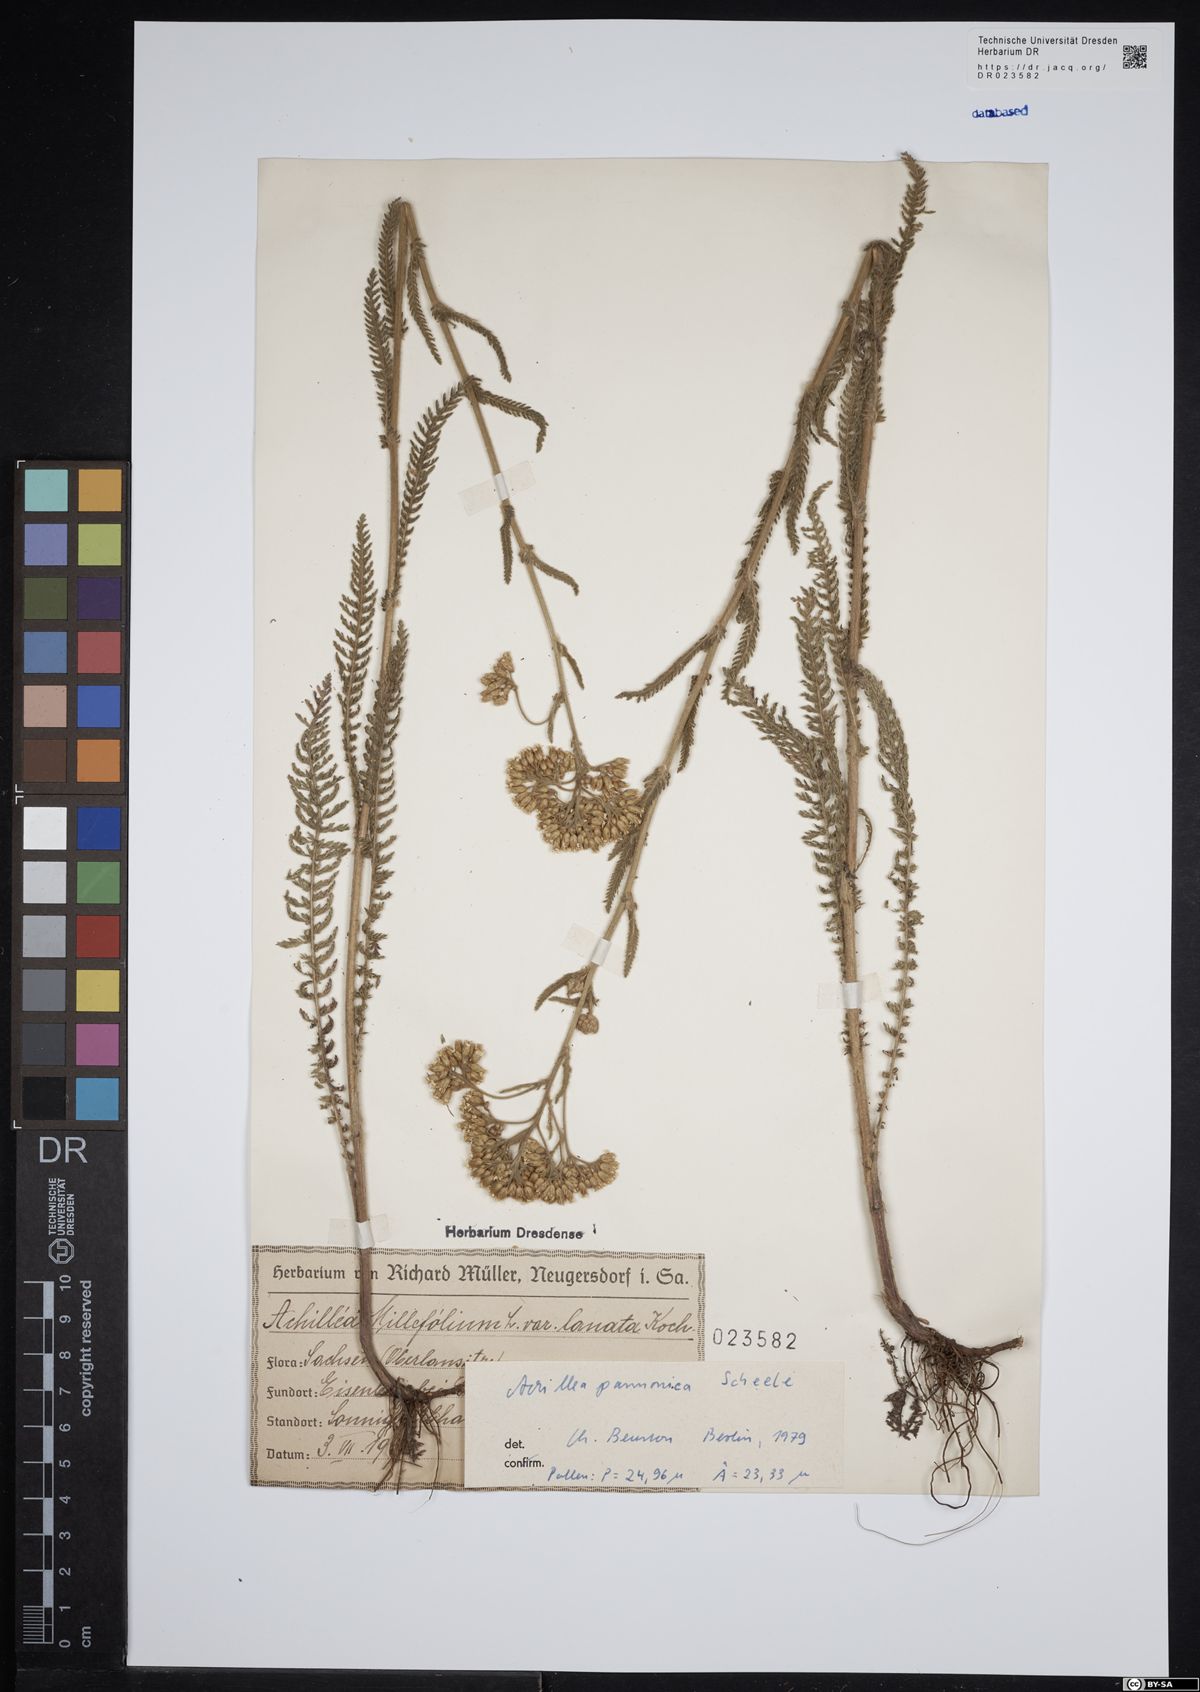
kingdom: Plantae
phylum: Tracheophyta
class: Magnoliopsida
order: Asterales
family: Asteraceae
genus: Achillea
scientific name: Achillea pannonica
